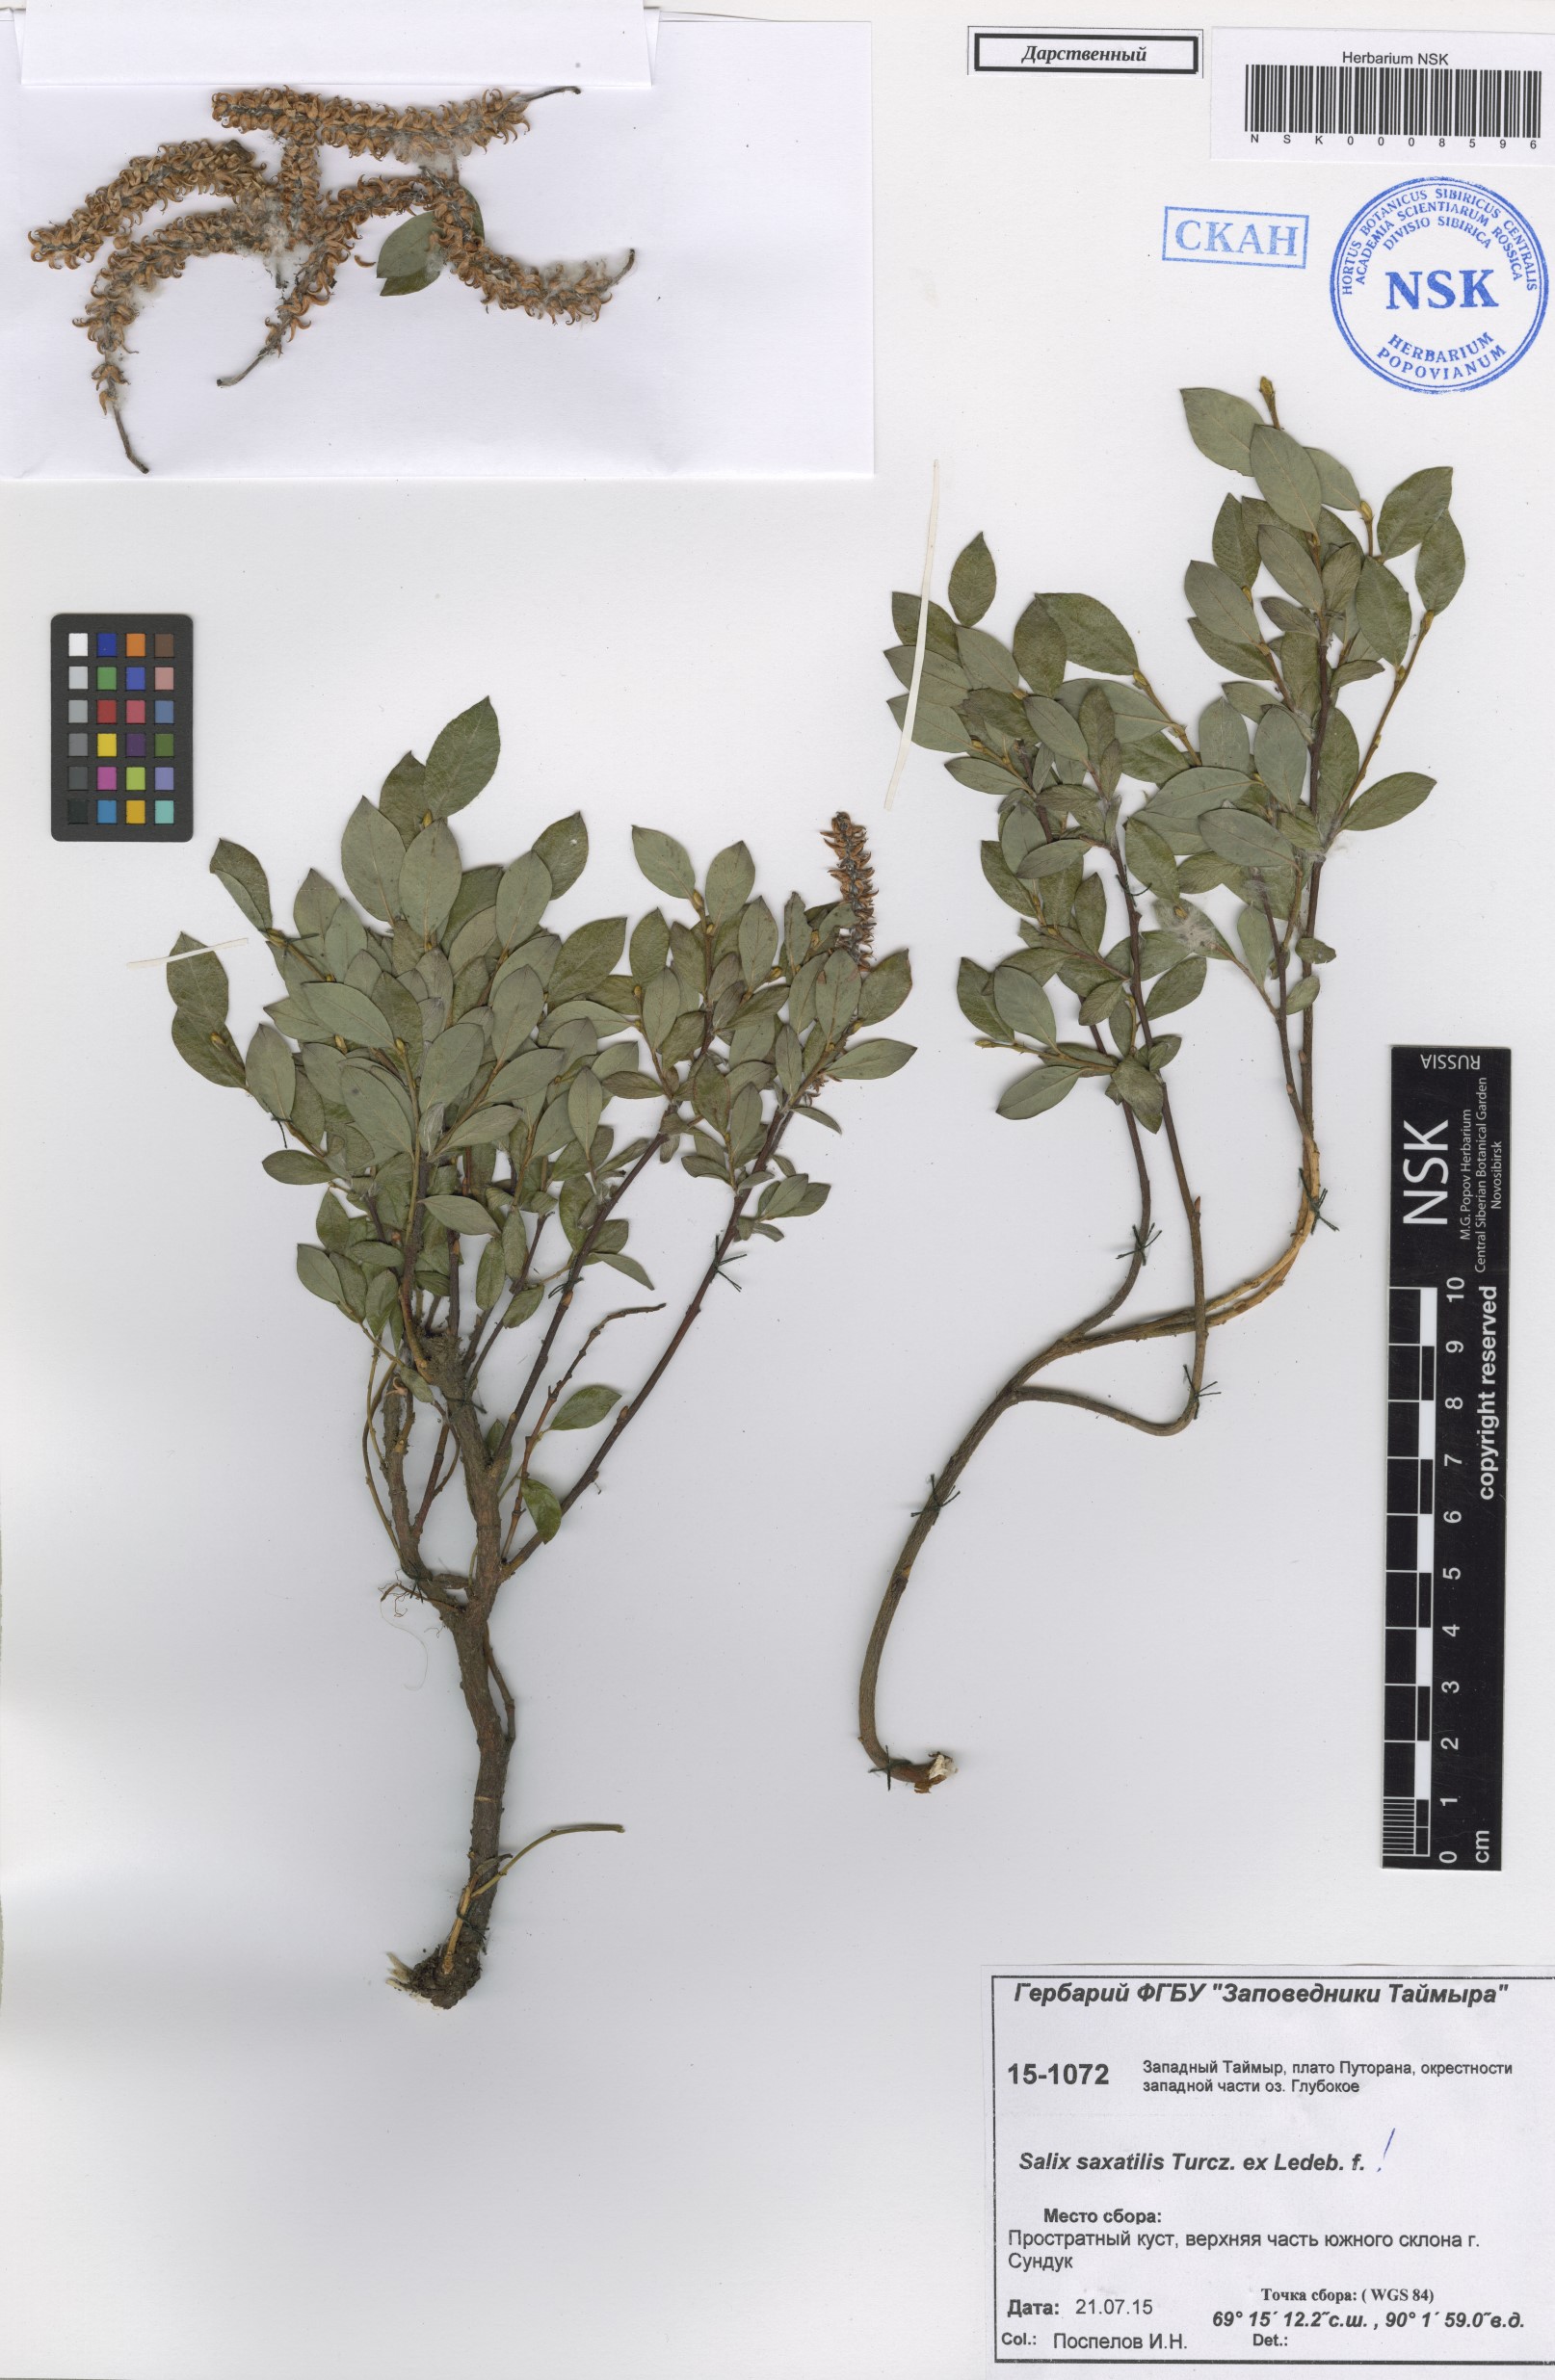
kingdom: Plantae
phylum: Tracheophyta
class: Magnoliopsida
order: Malpighiales
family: Salicaceae
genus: Salix
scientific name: Salix saxatilis
